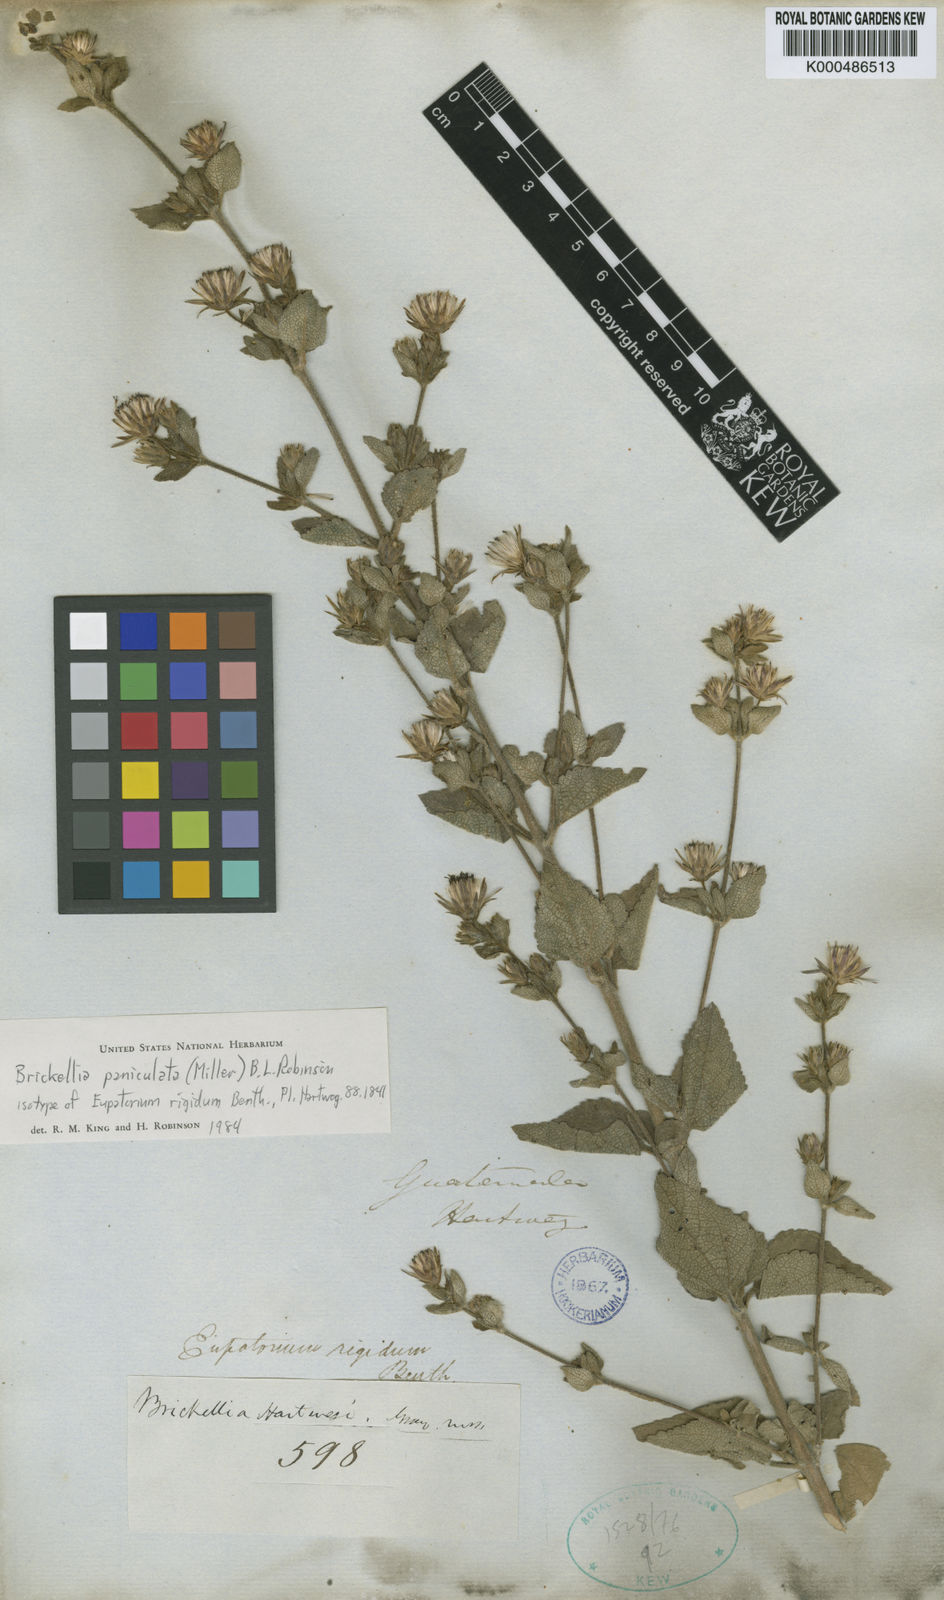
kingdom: Plantae
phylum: Tracheophyta
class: Magnoliopsida
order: Asterales
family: Asteraceae
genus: Brickellia
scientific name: Brickellia paniculata
